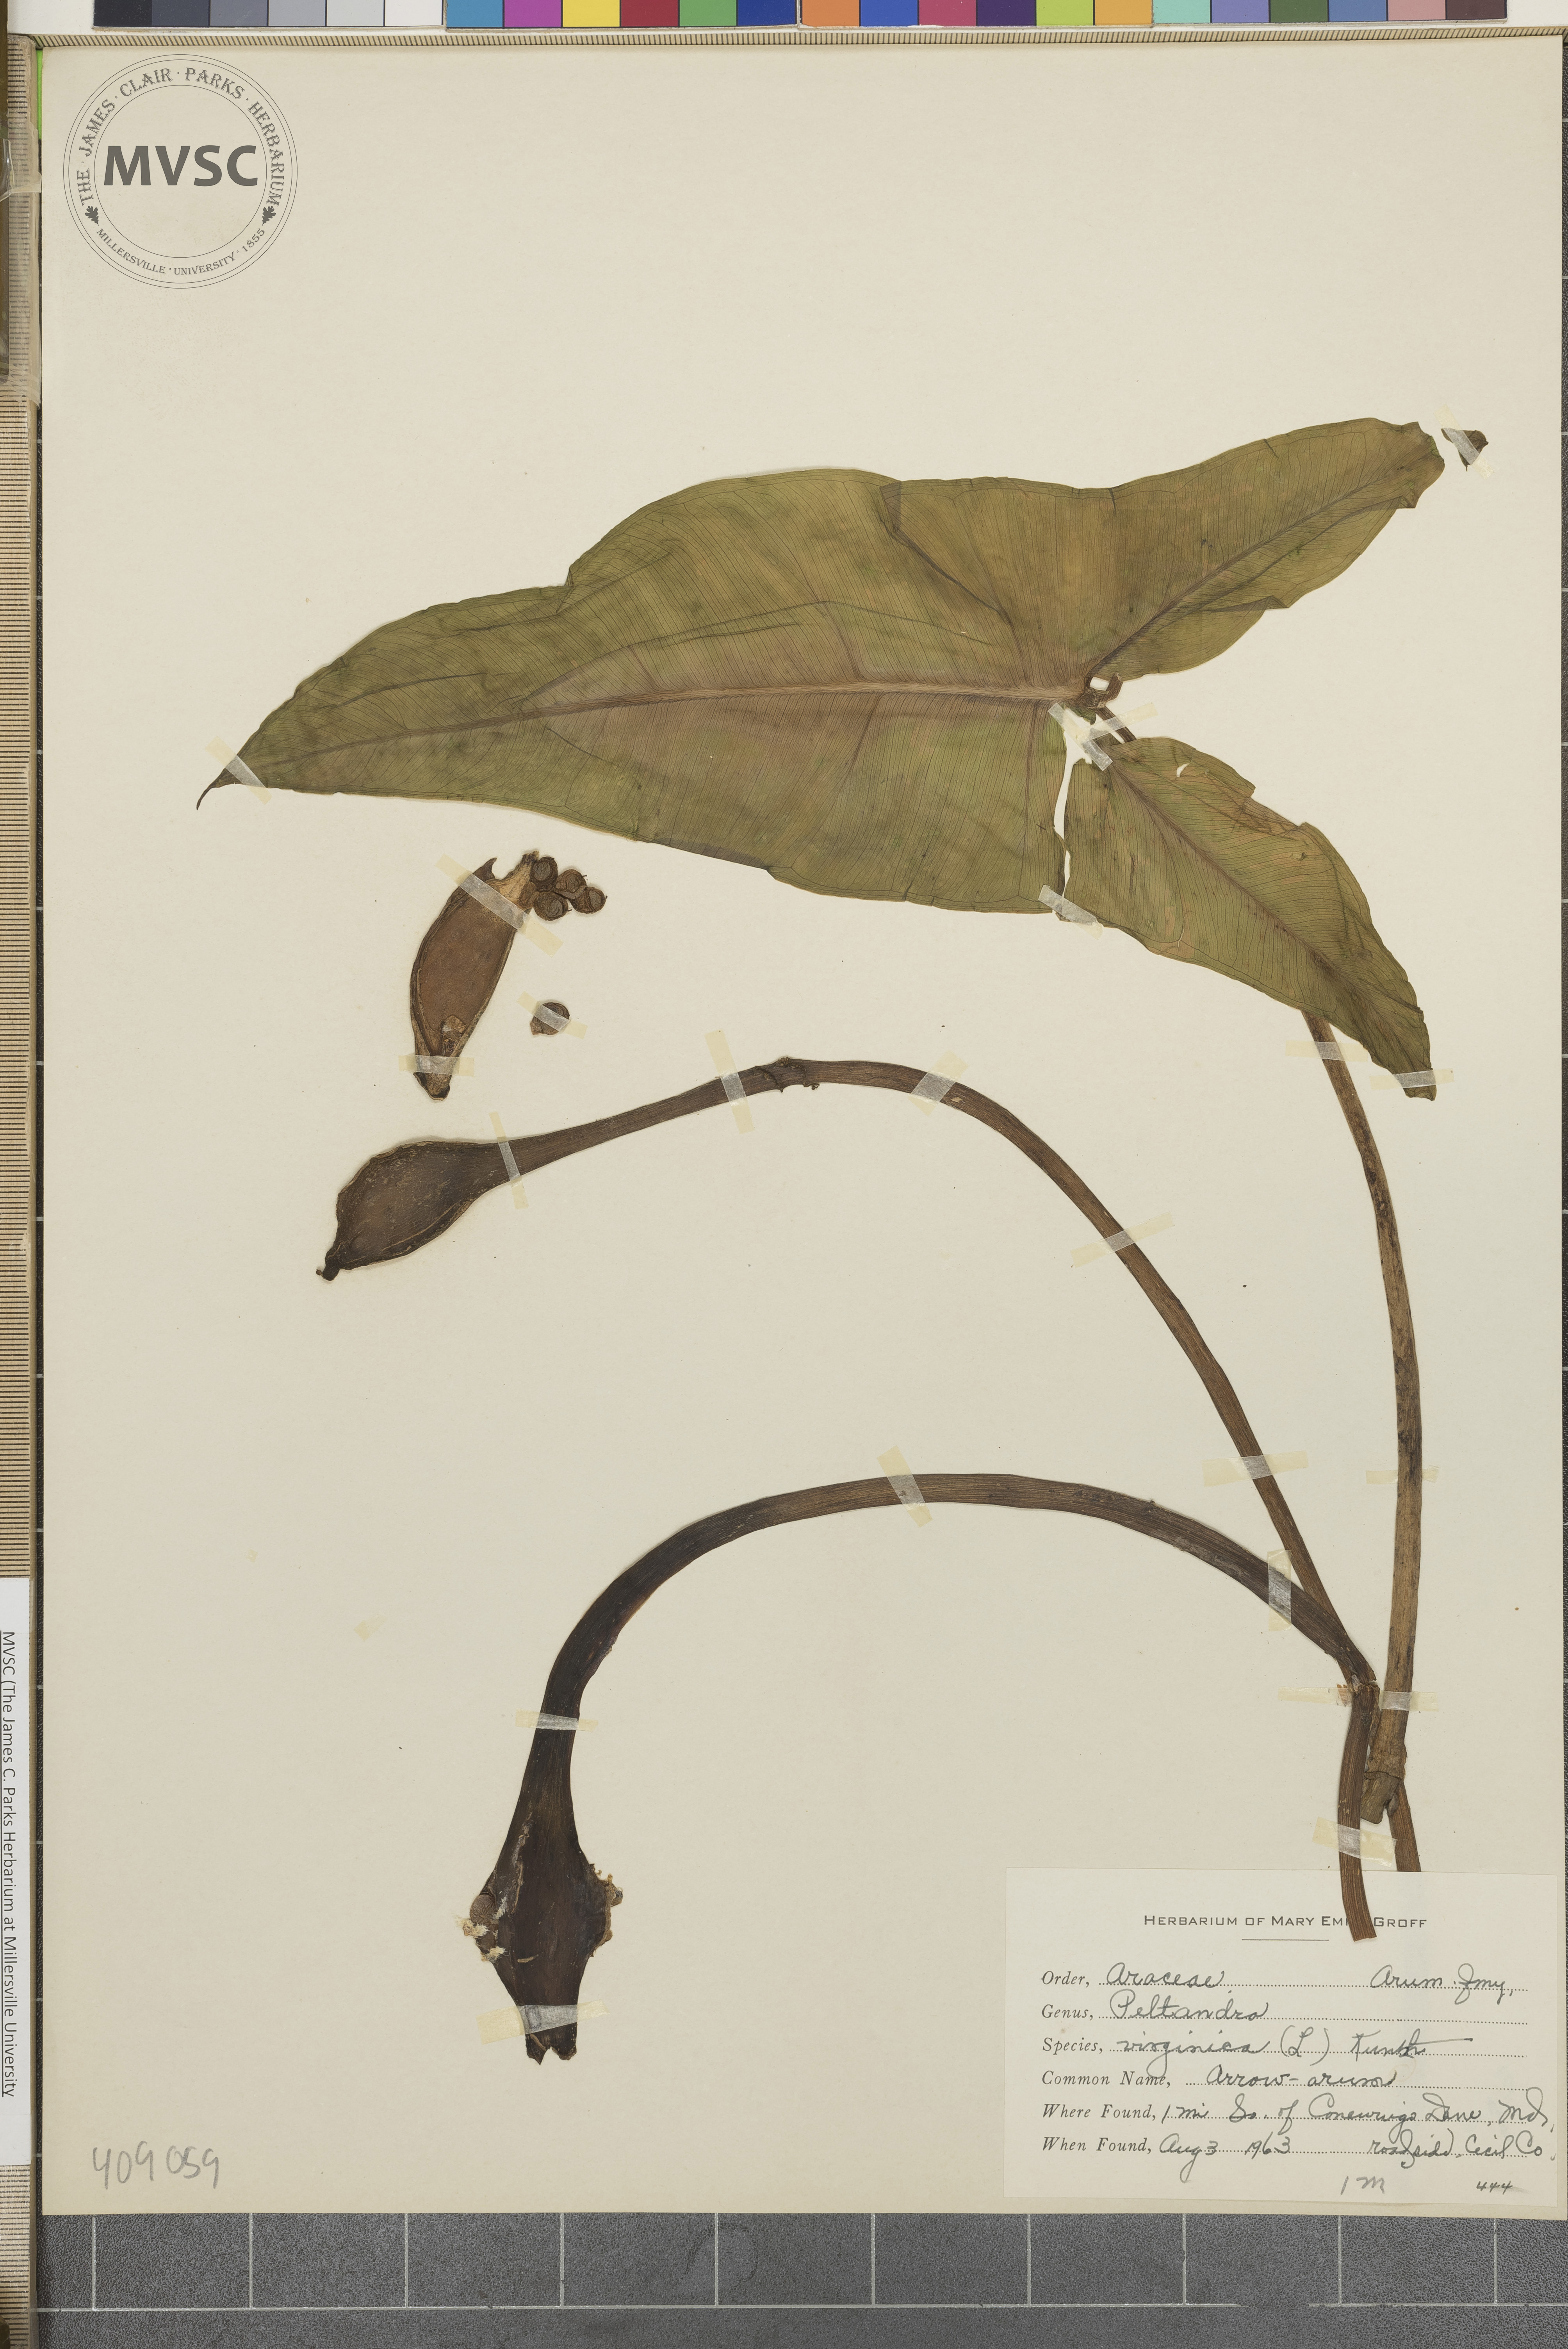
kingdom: Plantae
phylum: Tracheophyta
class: Liliopsida
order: Alismatales
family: Araceae
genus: Peltandra
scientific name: Peltandra virginica
